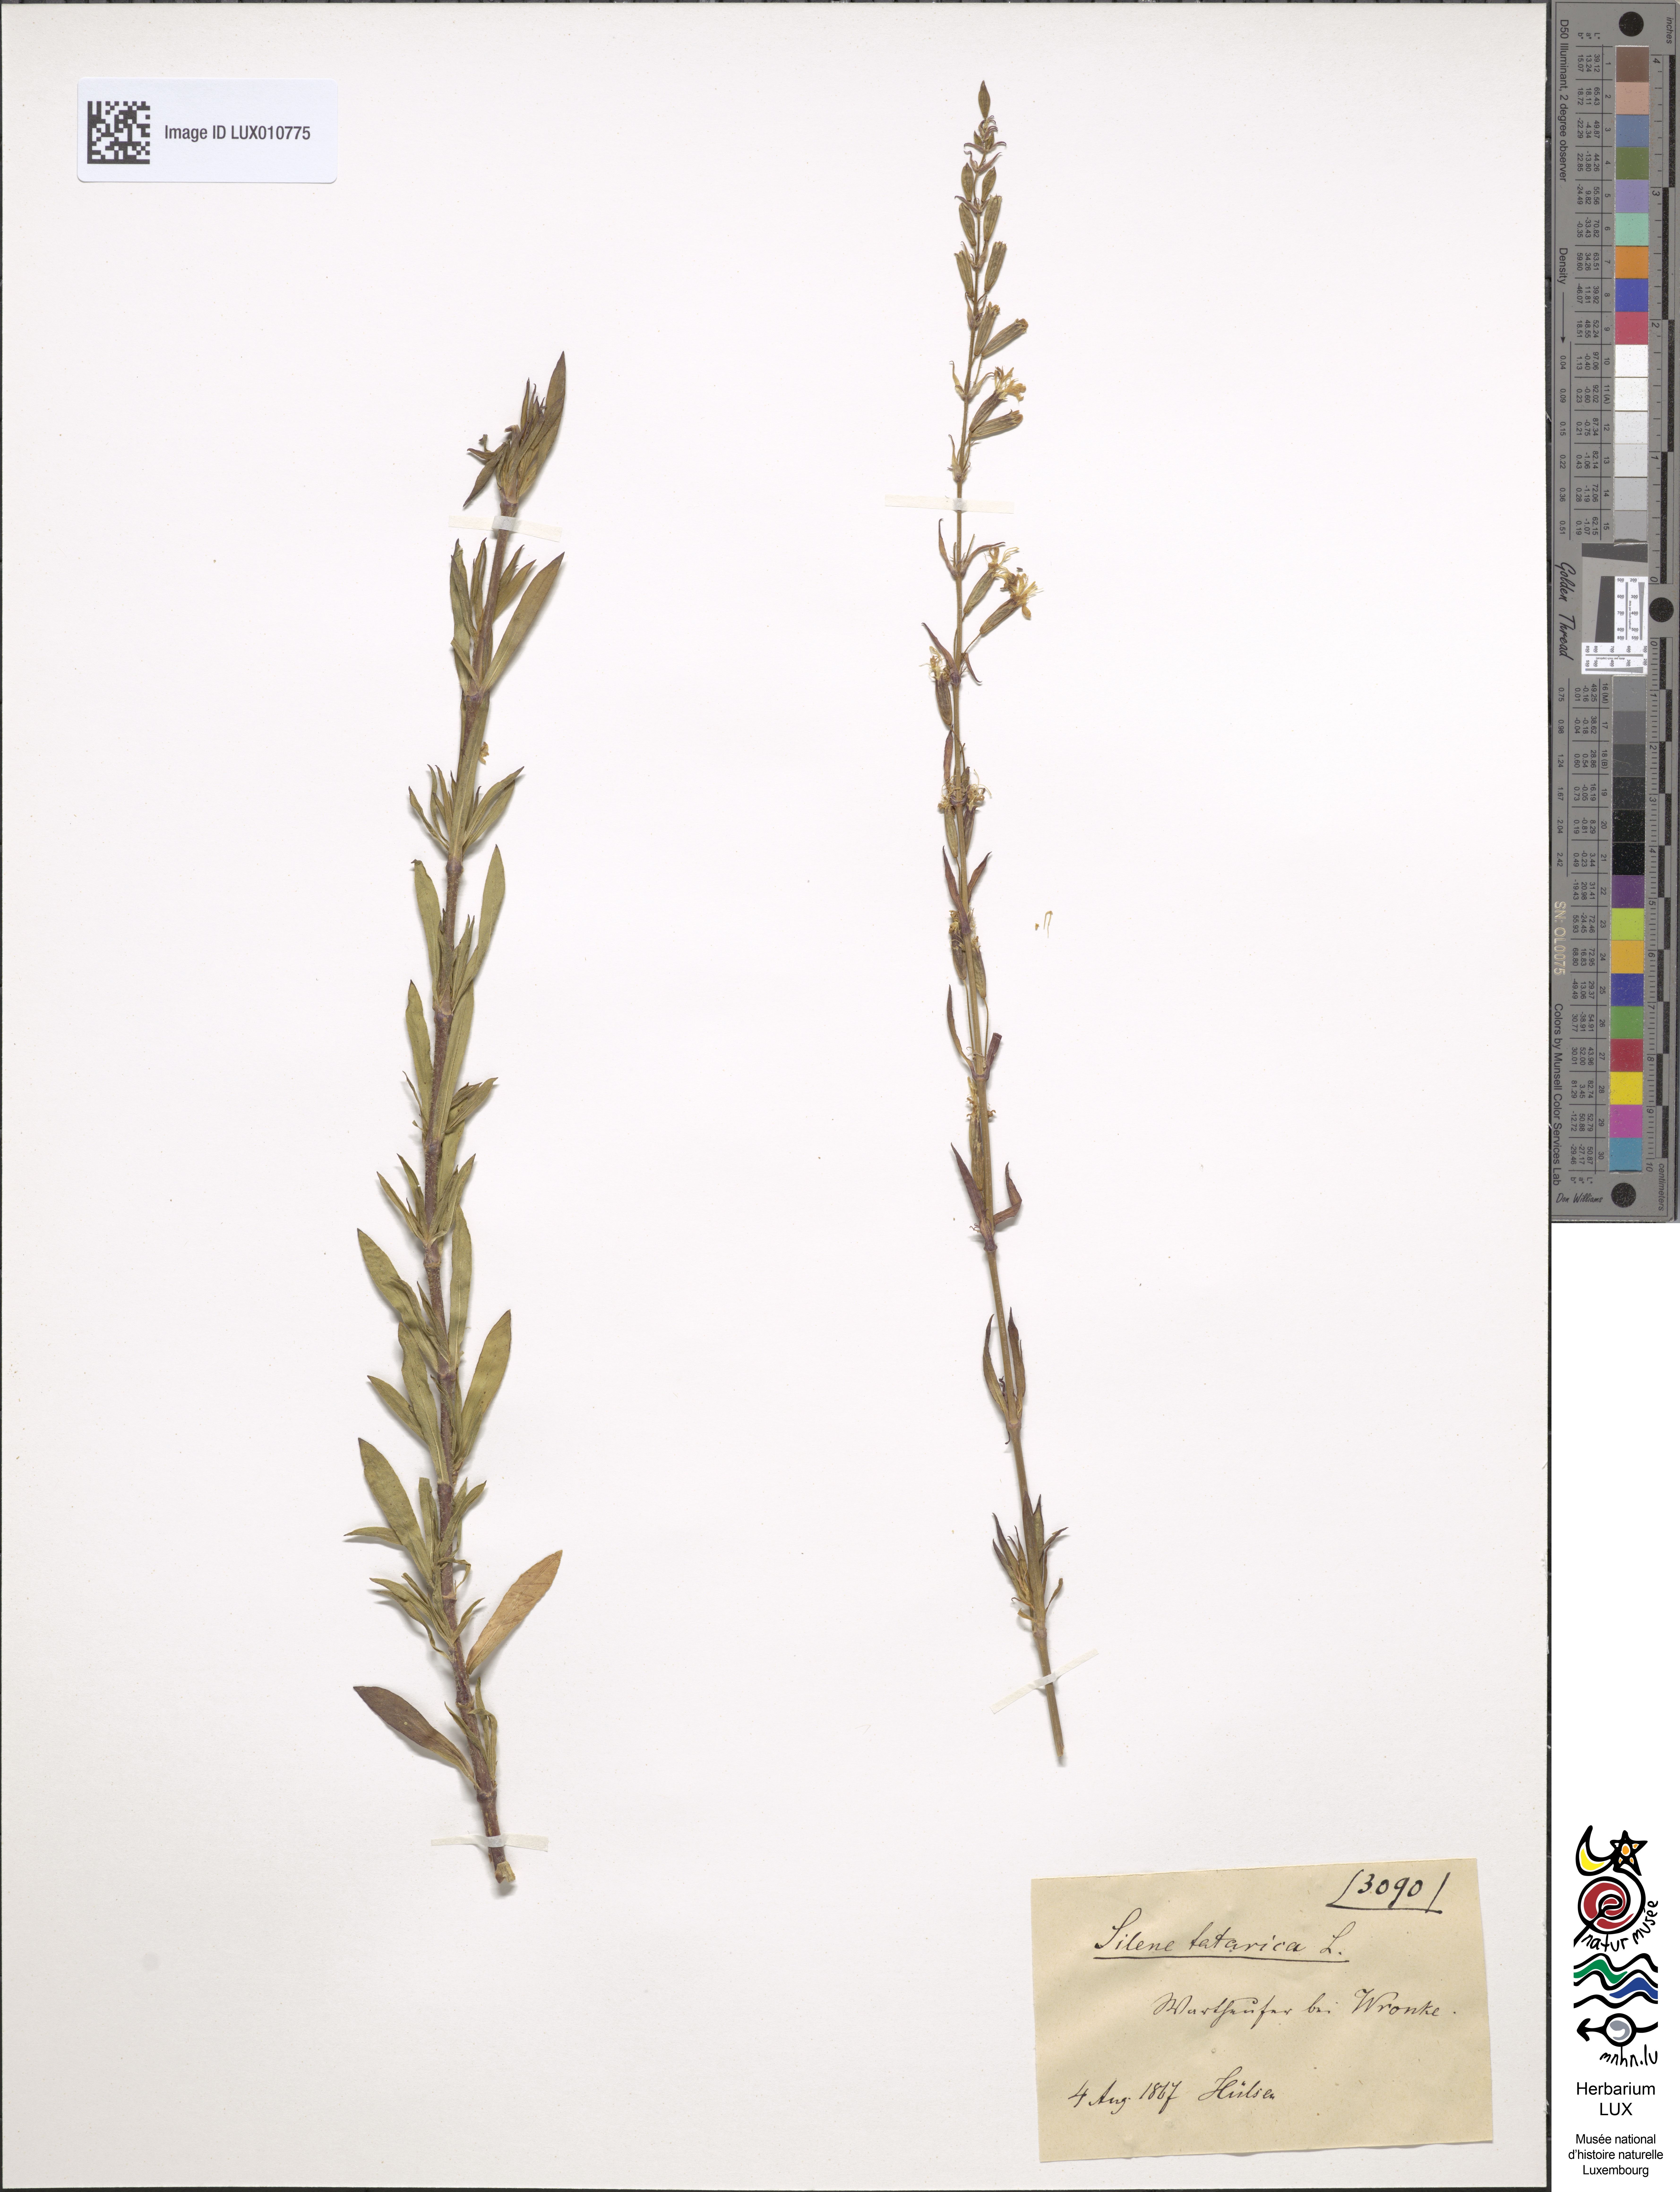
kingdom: Plantae
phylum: Tracheophyta
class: Magnoliopsida
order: Caryophyllales
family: Caryophyllaceae
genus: Silene
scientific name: Silene tatarica
